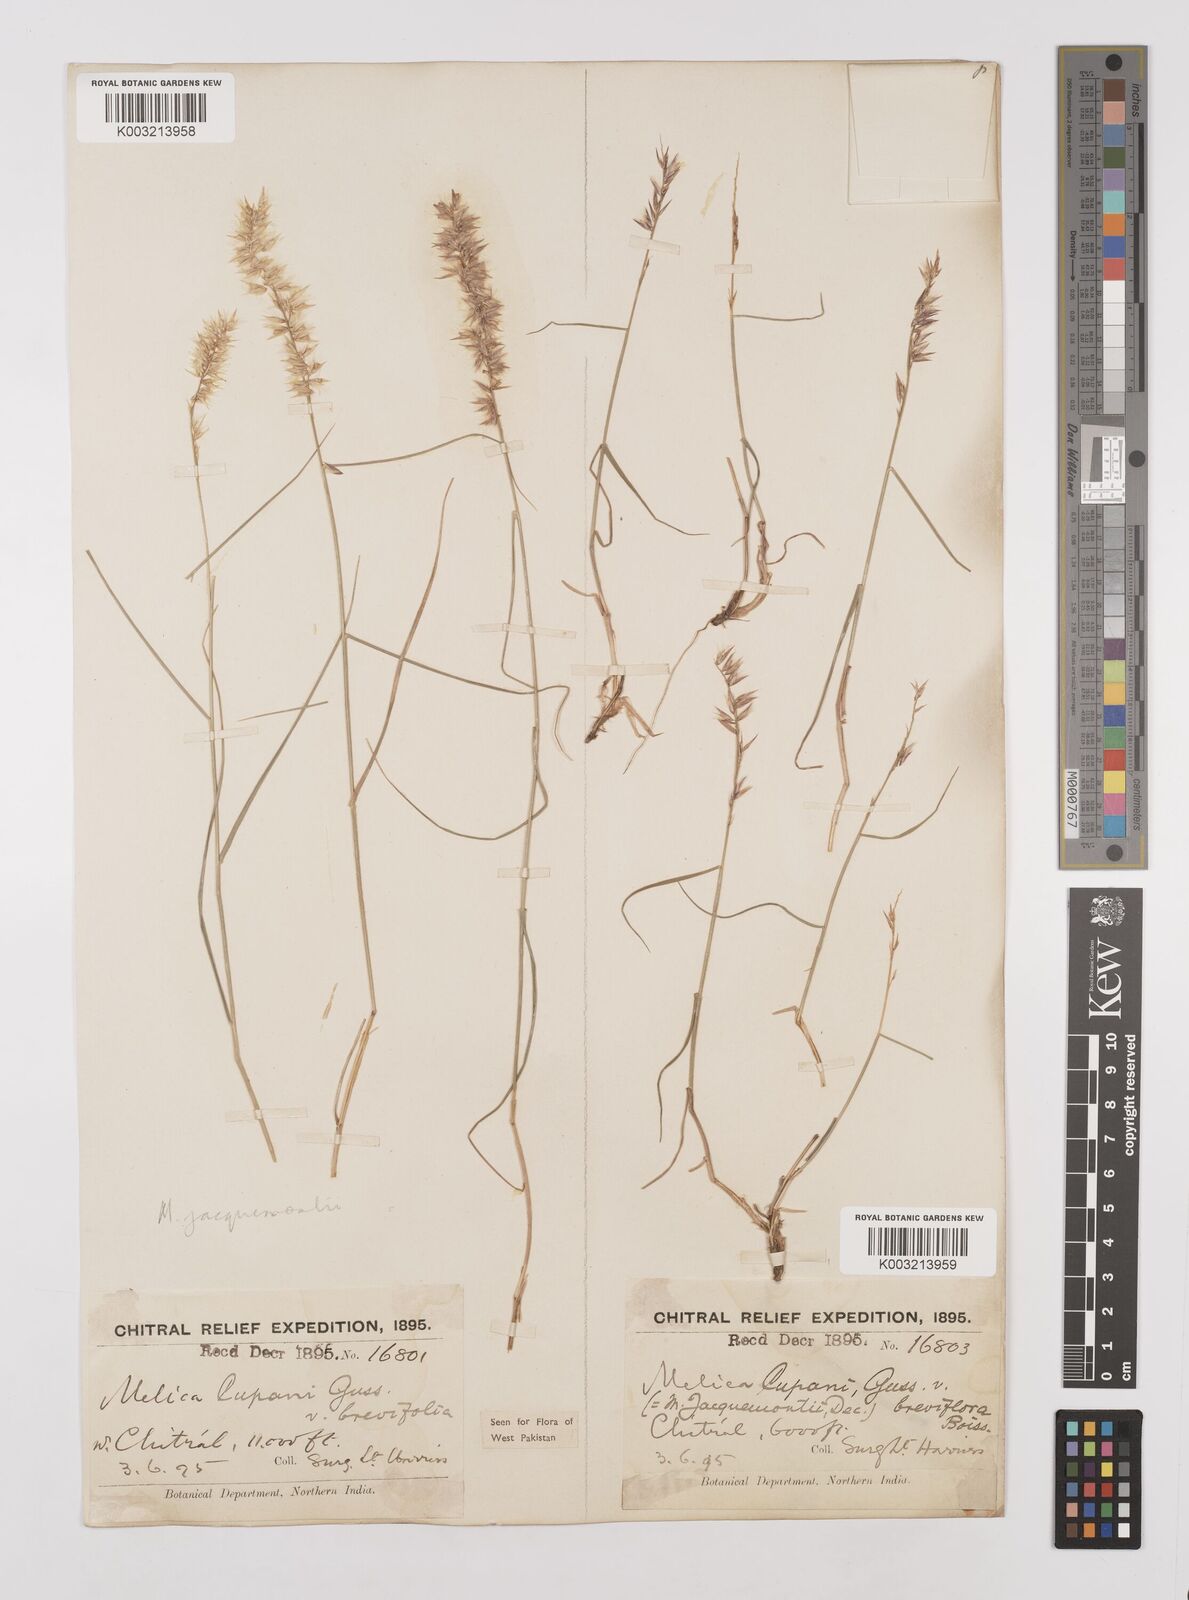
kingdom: Plantae
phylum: Tracheophyta
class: Liliopsida
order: Poales
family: Poaceae
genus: Melica
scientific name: Melica persica
